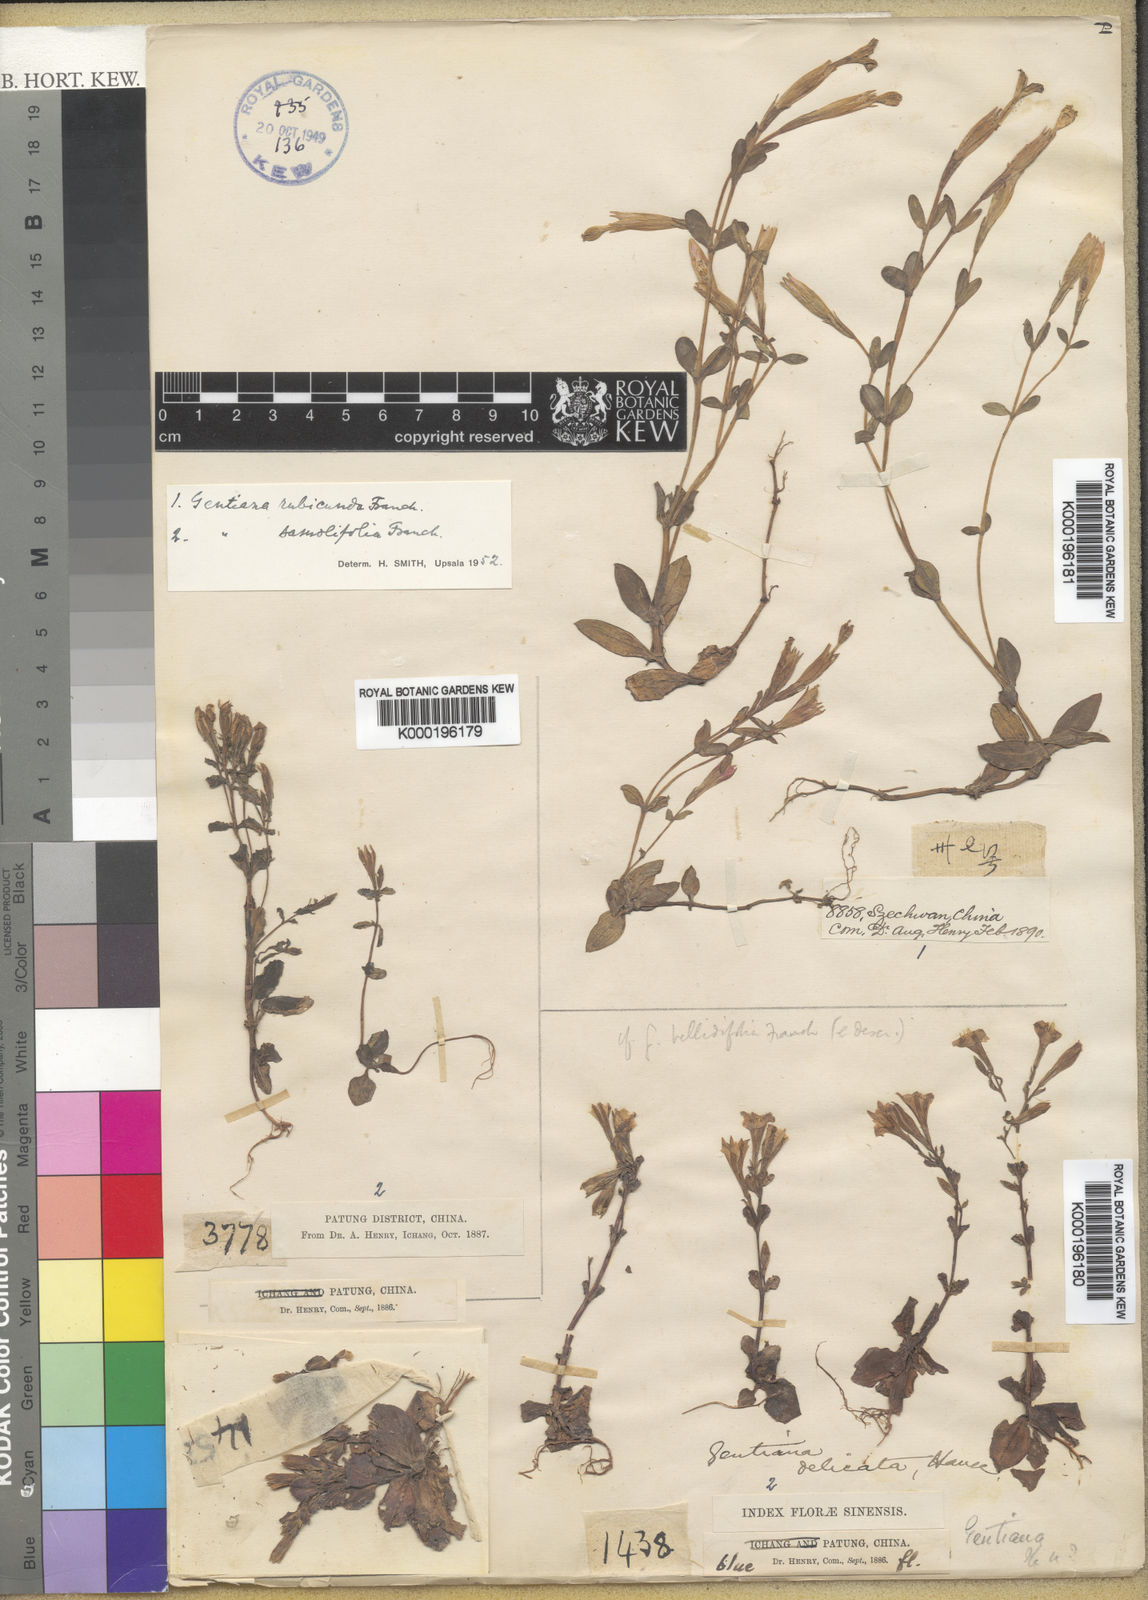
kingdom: Plantae
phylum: Tracheophyta
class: Magnoliopsida
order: Gentianales
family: Gentianaceae
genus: Gentiana
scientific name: Gentiana rubicunda
